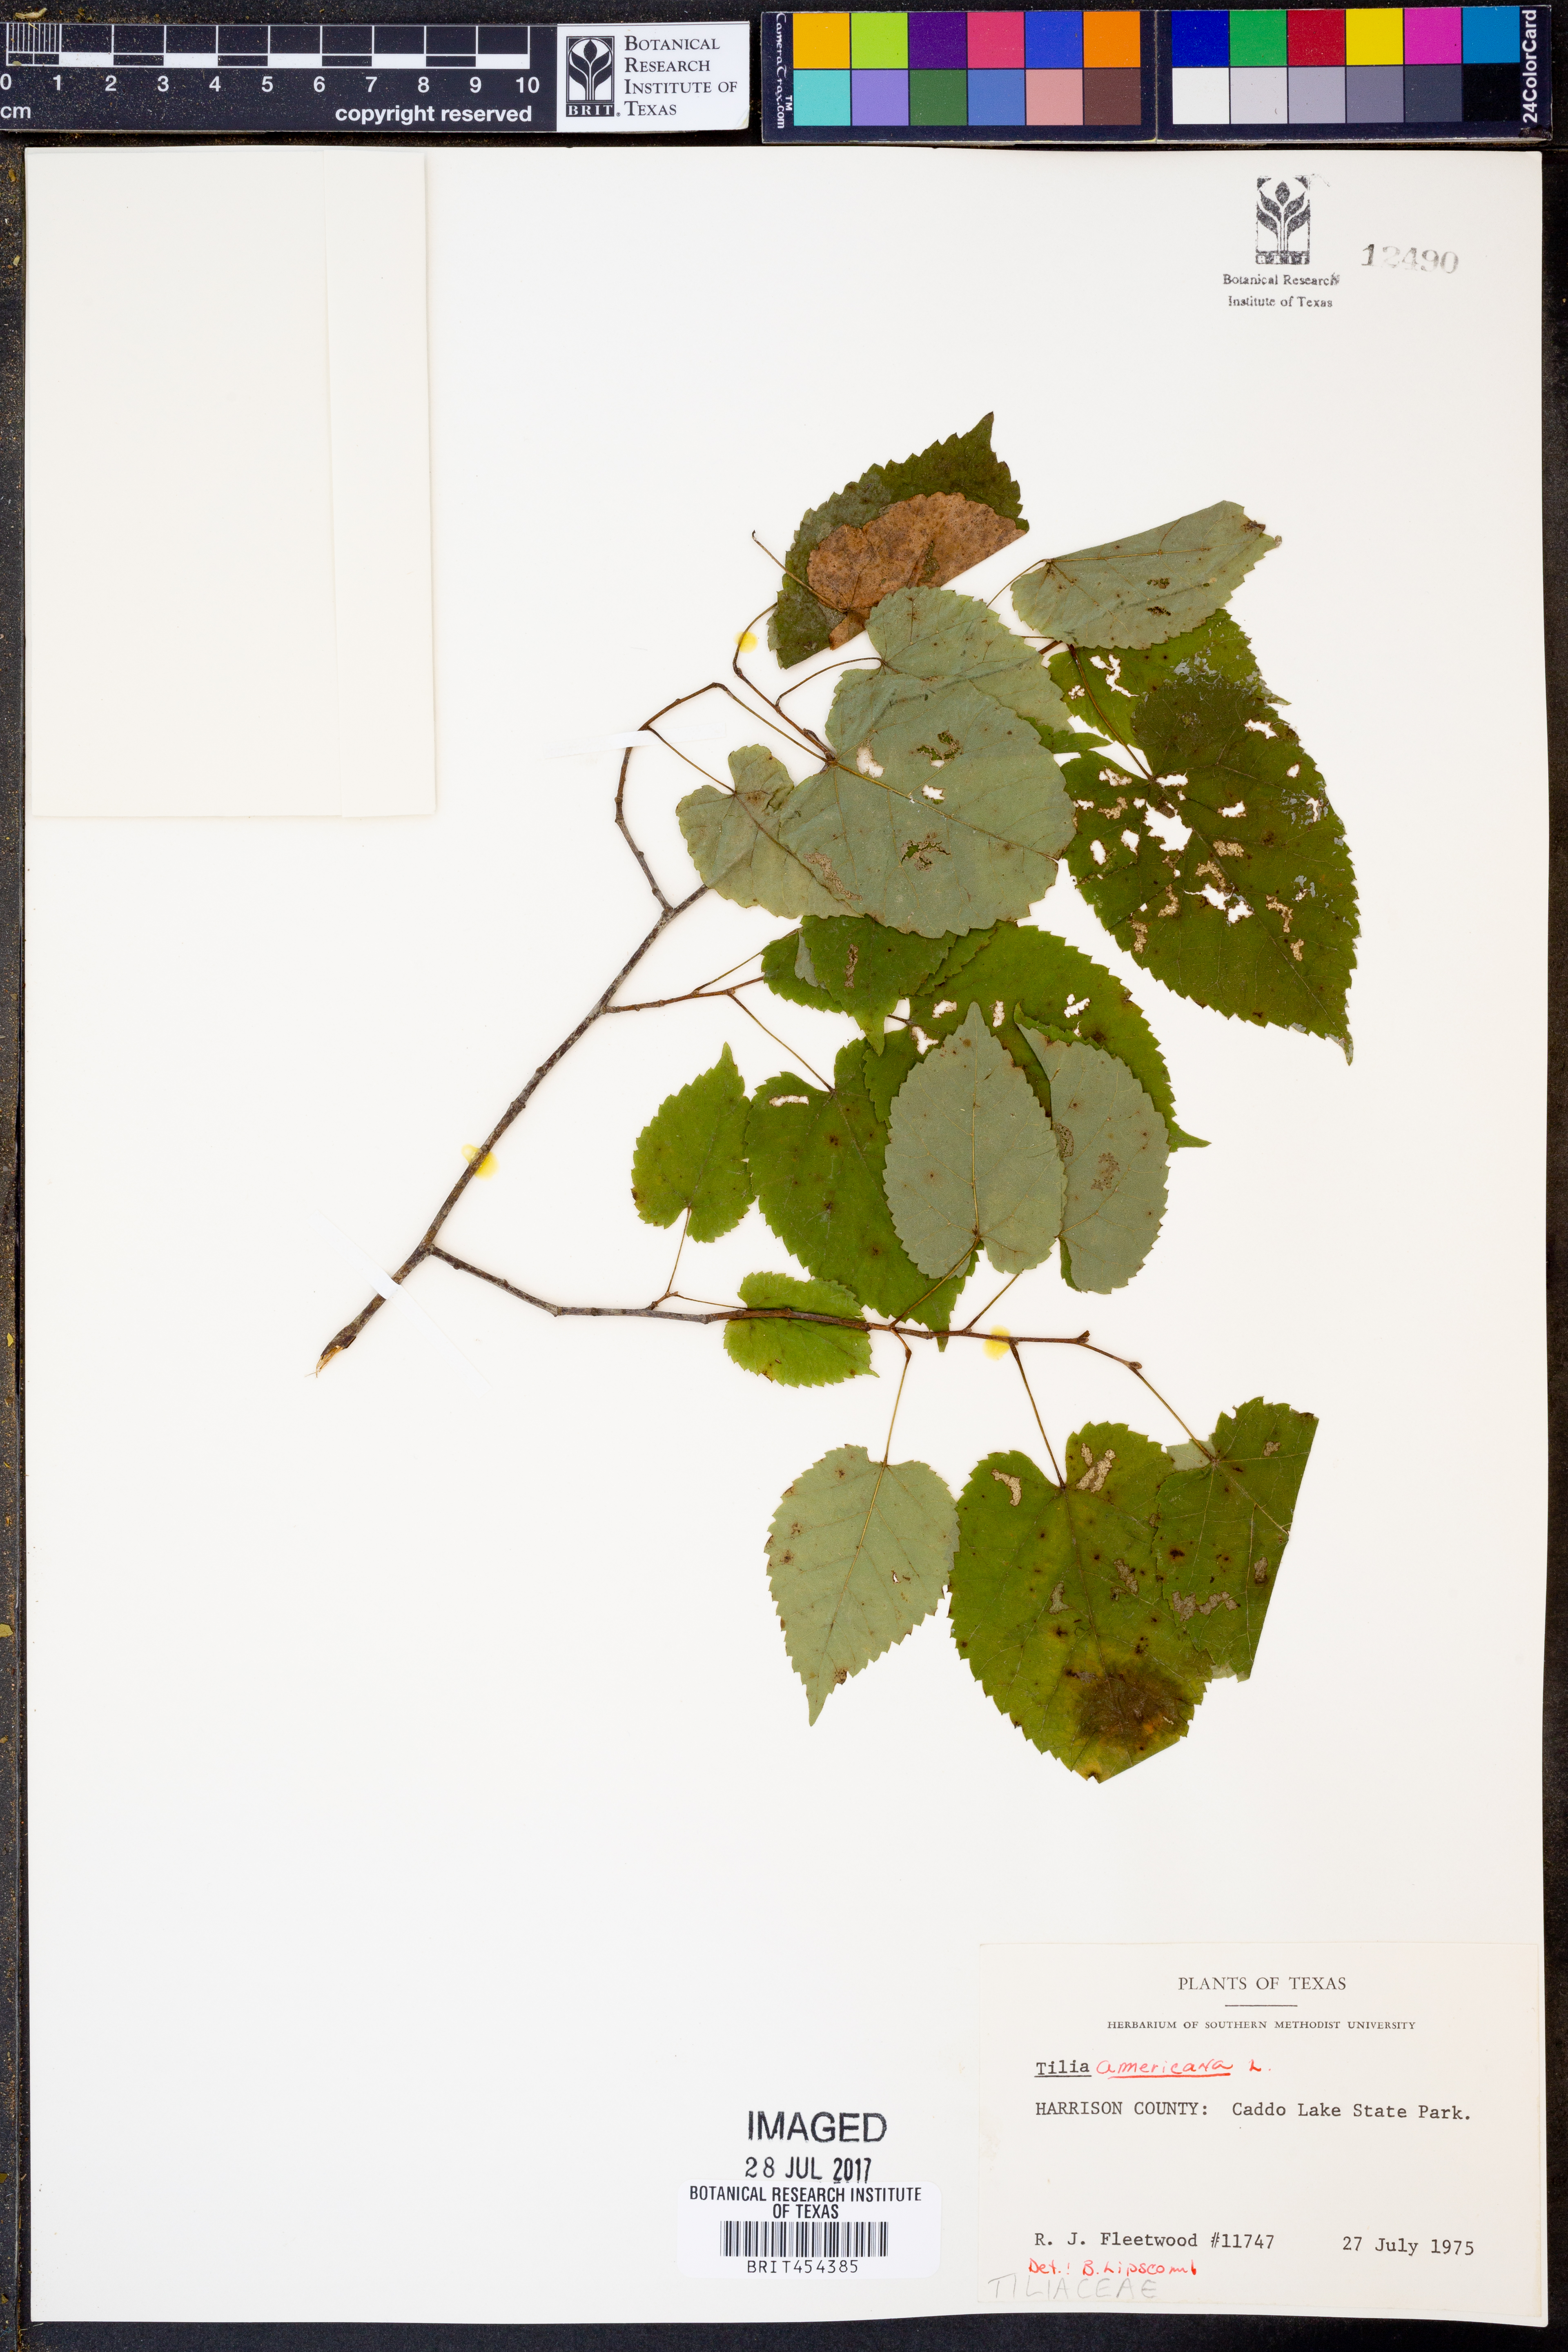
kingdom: Plantae
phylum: Tracheophyta
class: Magnoliopsida
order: Malvales
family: Malvaceae
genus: Tilia
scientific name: Tilia americana
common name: Basswood
